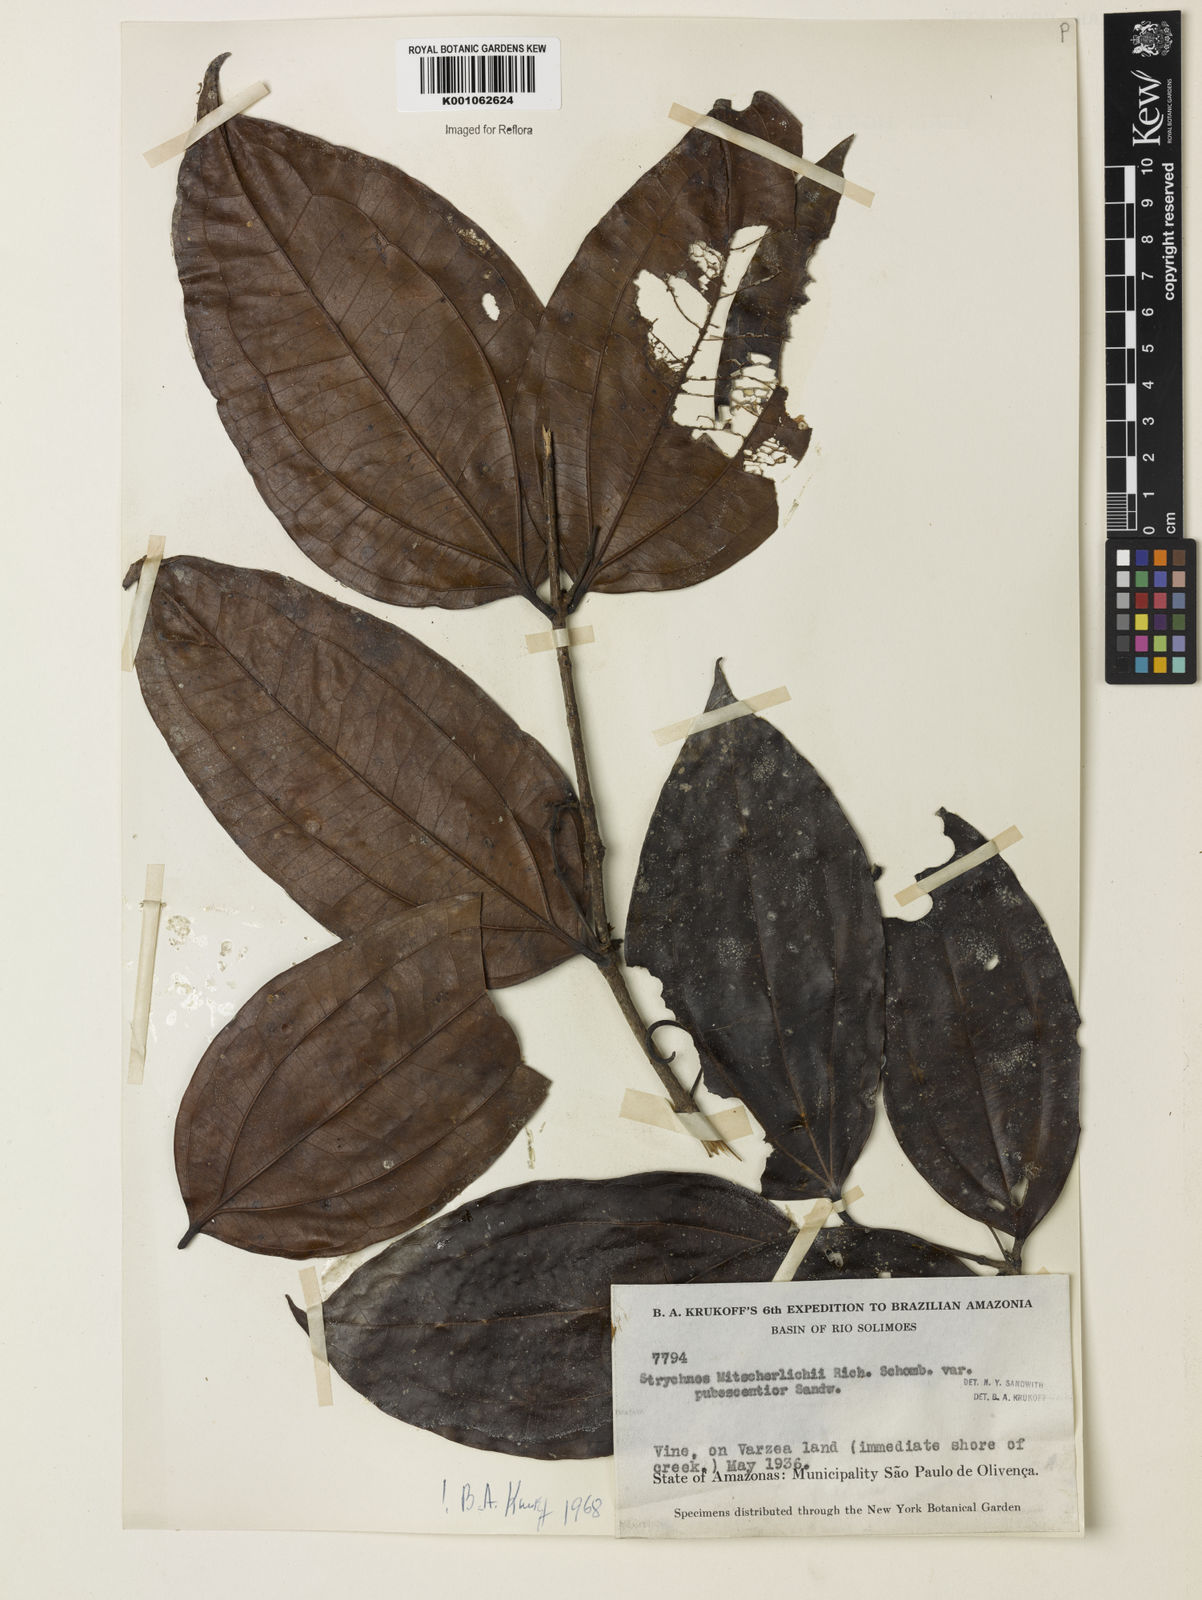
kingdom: Plantae
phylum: Tracheophyta
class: Magnoliopsida
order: Gentianales
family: Loganiaceae
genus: Strychnos
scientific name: Strychnos mitscherlichii
